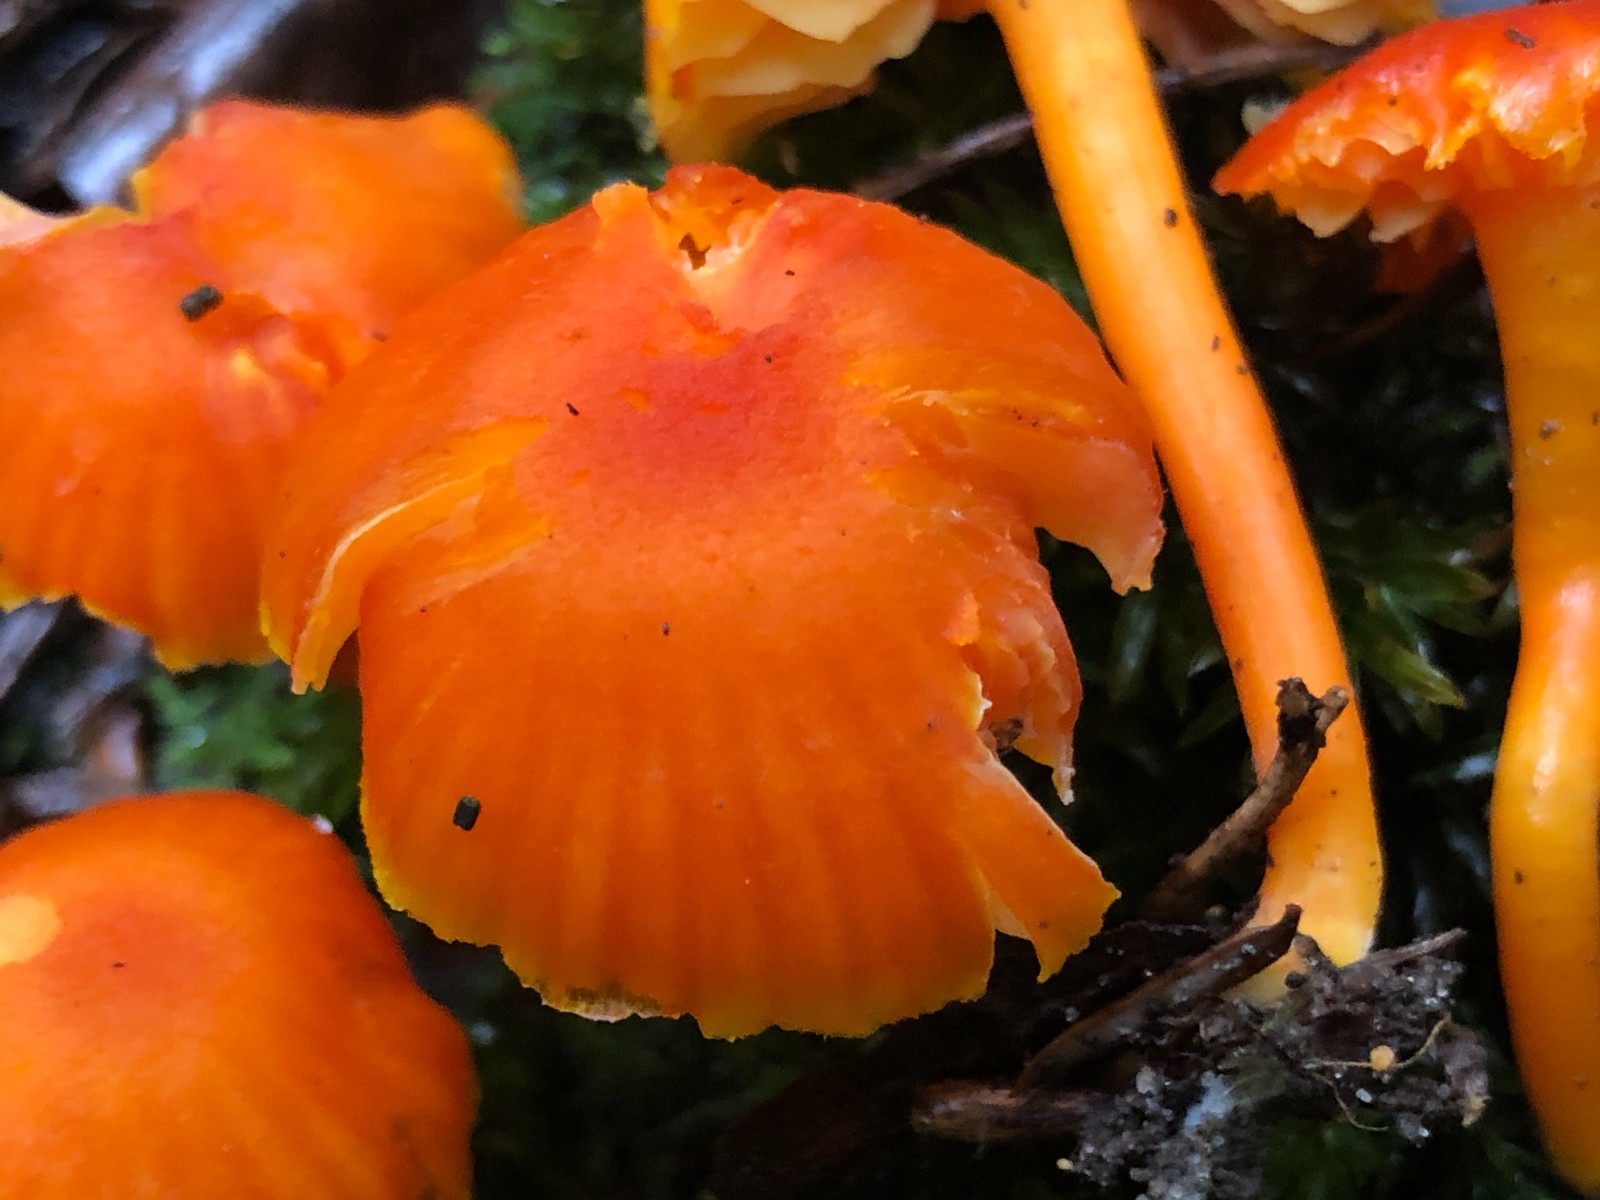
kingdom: Fungi
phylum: Basidiomycota
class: Agaricomycetes
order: Agaricales
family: Hygrophoraceae
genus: Hygrocybe
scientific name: Hygrocybe miniata
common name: mønje-vokshat
